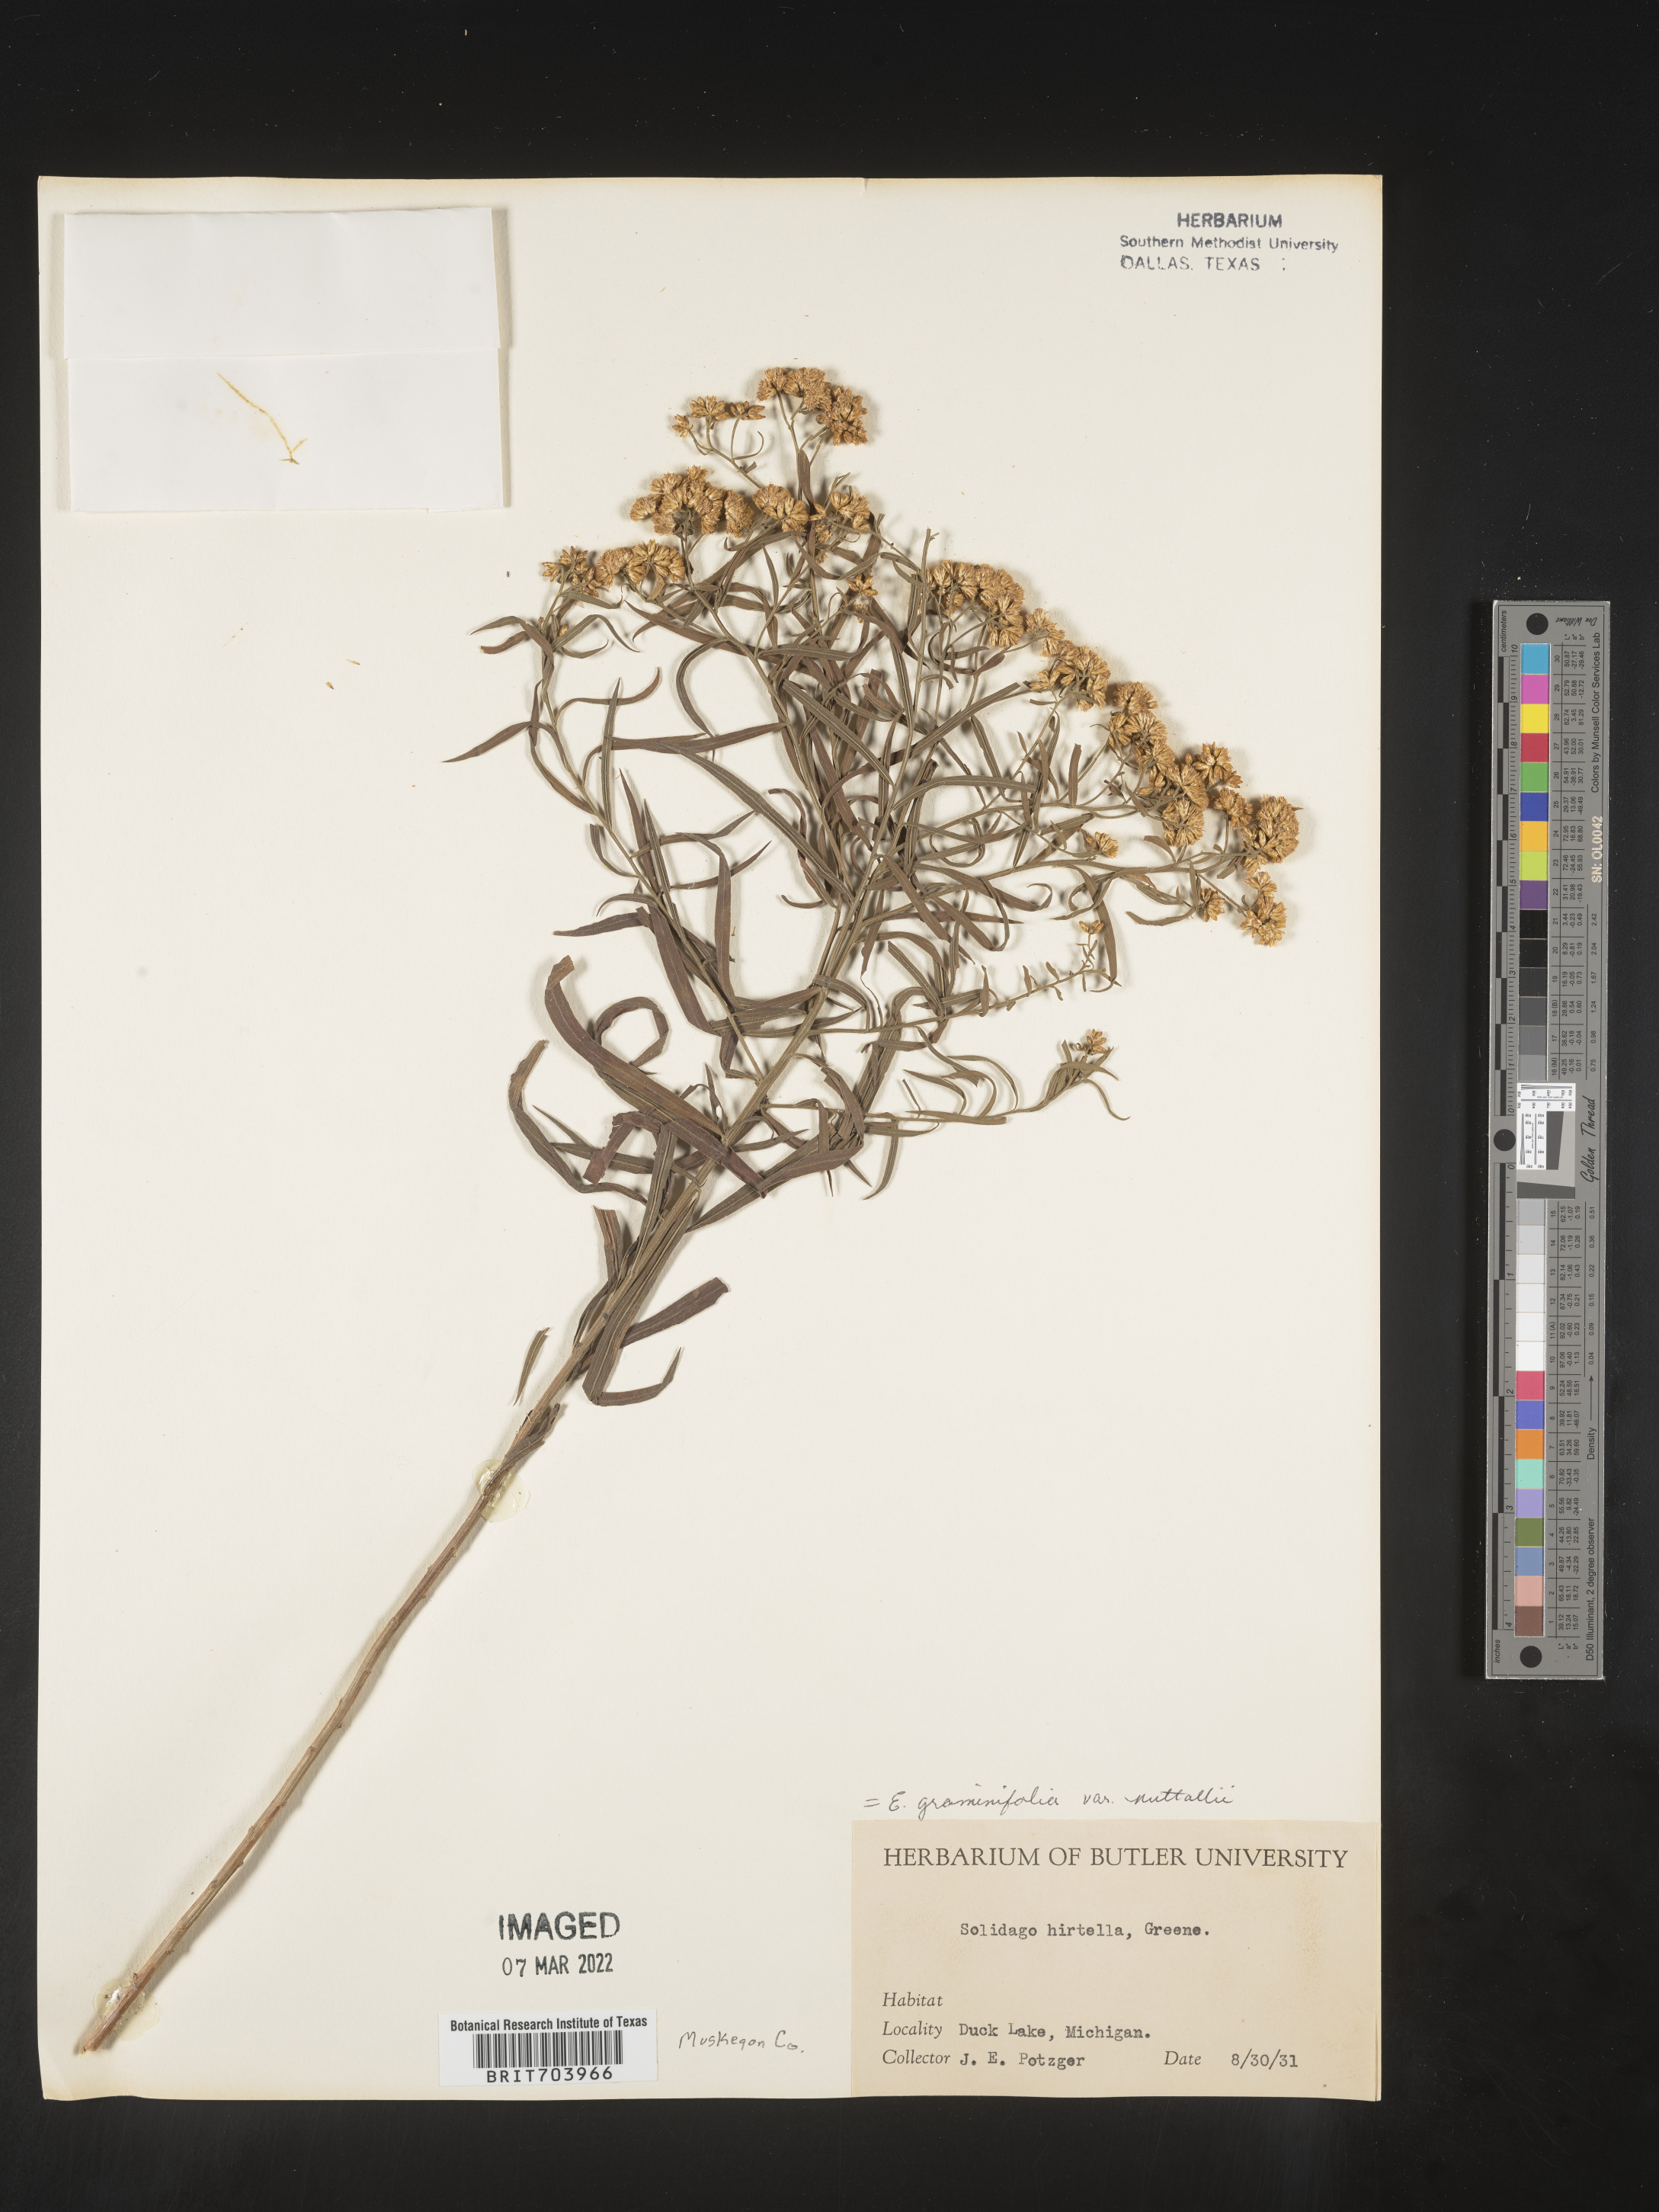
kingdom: Plantae
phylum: Tracheophyta
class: Magnoliopsida
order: Asterales
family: Asteraceae
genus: Euthamia
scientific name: Euthamia graminifolia
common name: Common goldentop
